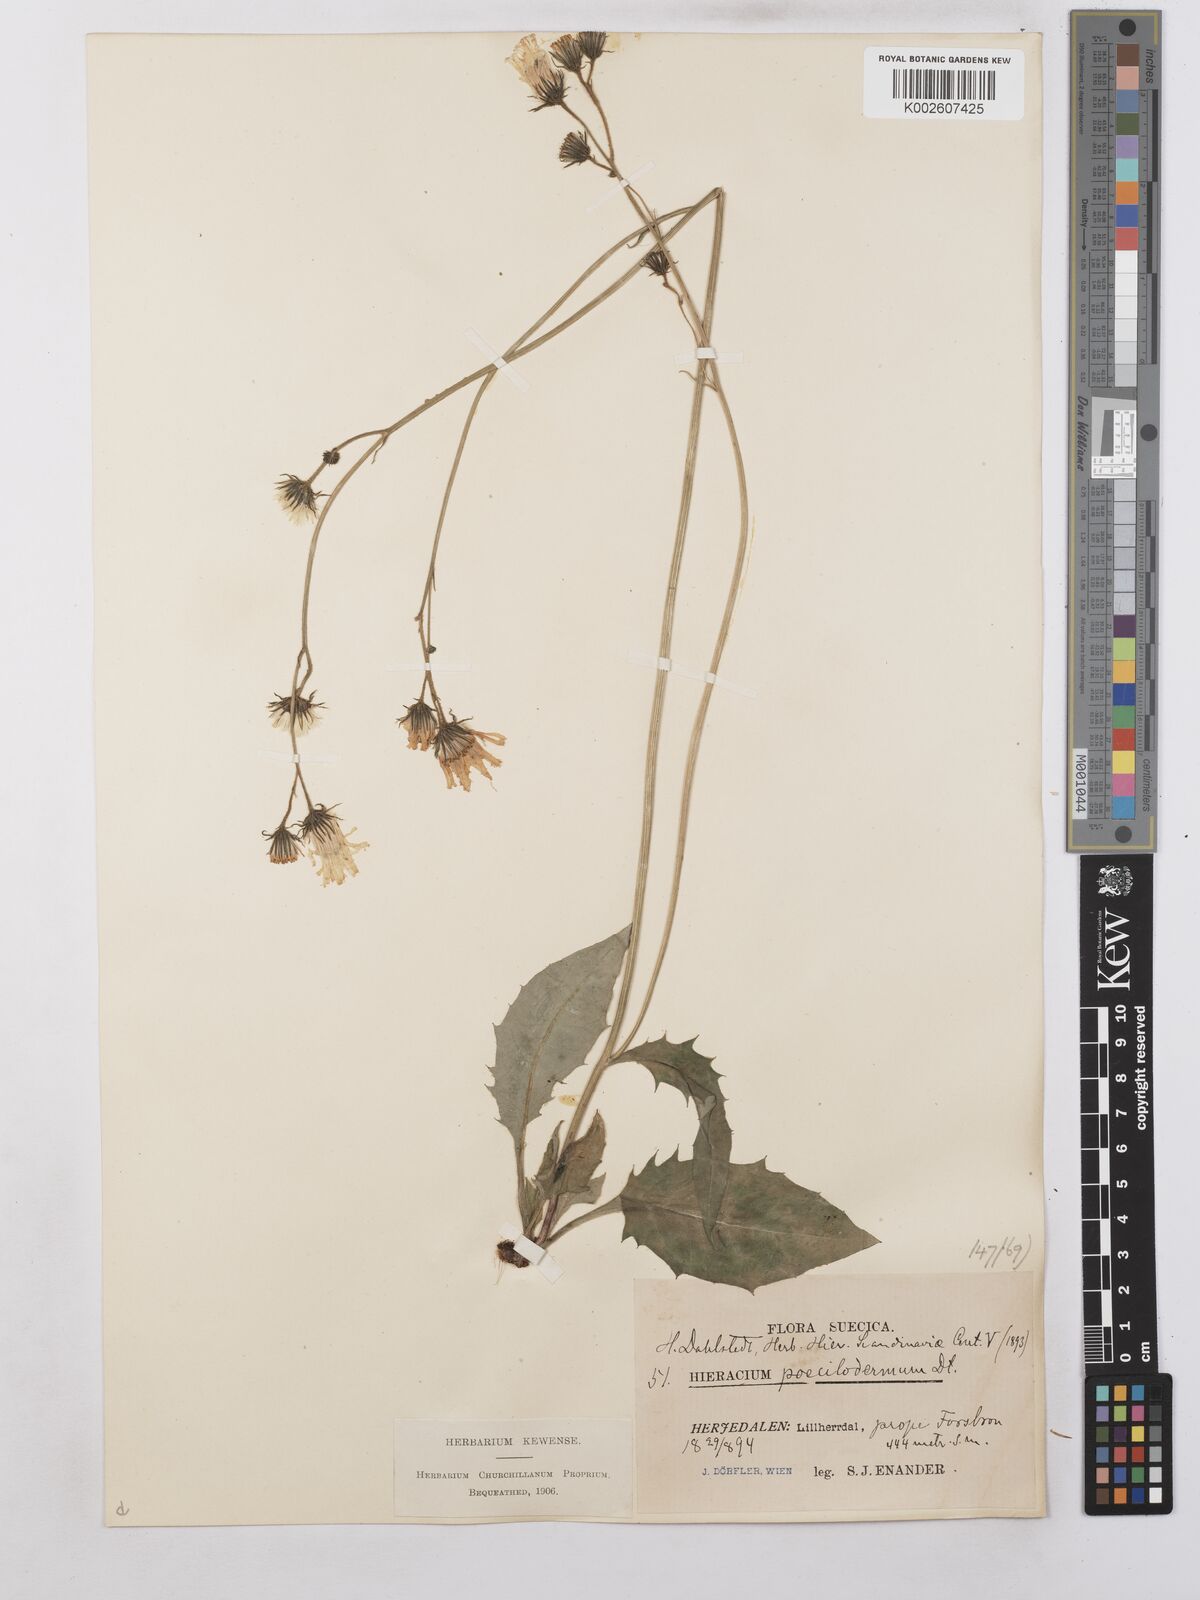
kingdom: Plantae
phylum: Tracheophyta
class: Magnoliopsida
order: Asterales
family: Asteraceae
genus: Hieracium
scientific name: Hieracium poecilodermum
